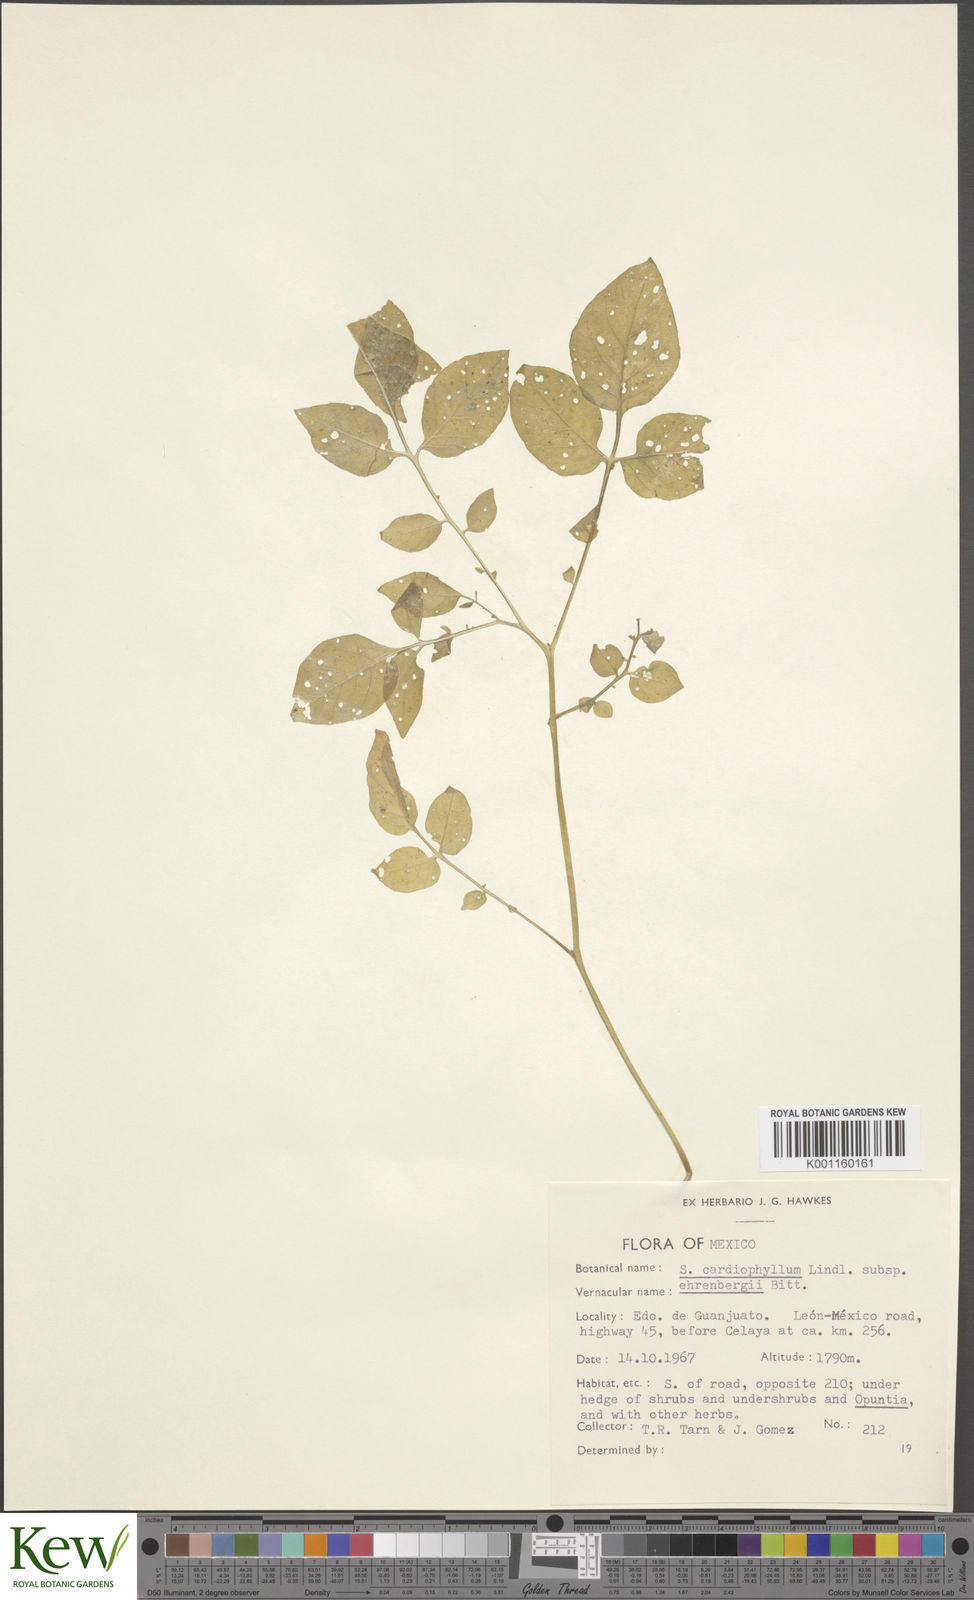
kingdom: Plantae
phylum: Tracheophyta
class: Magnoliopsida
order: Solanales
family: Solanaceae
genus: Solanum
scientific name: Solanum cardiophyllum
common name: Heartleaf horsenettle
